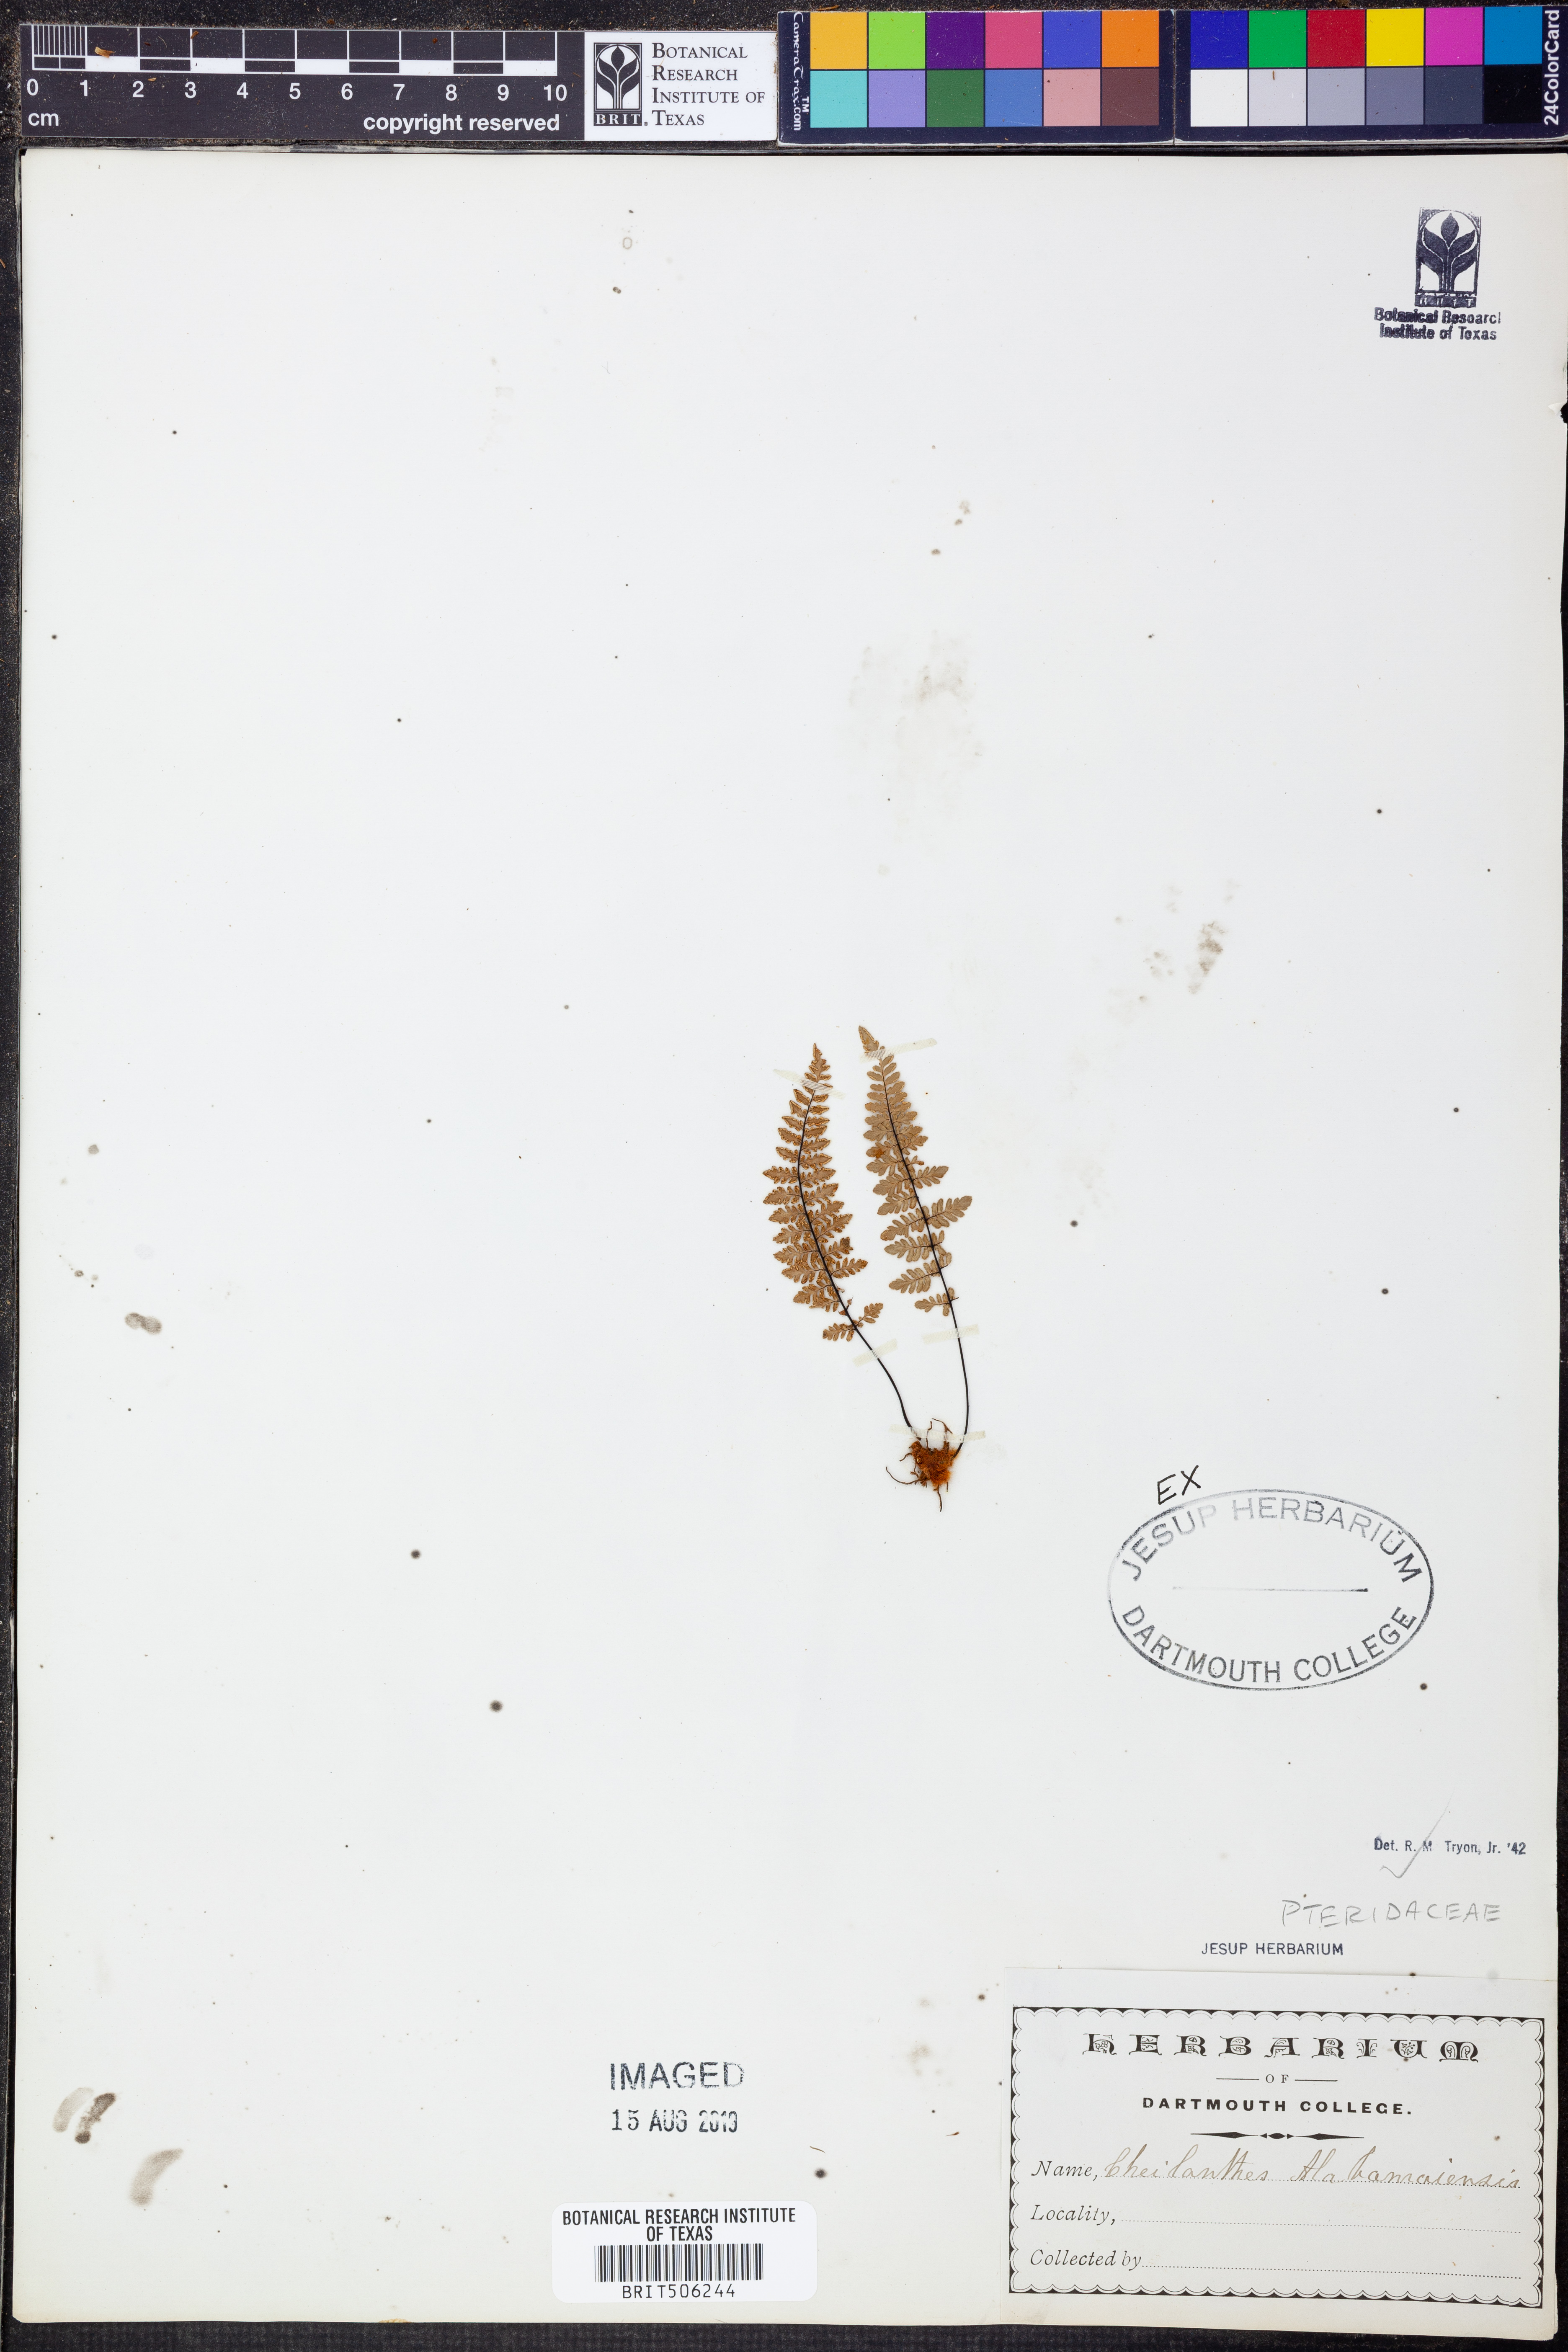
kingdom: Plantae
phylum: Tracheophyta
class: Polypodiopsida
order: Polypodiales
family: Pteridaceae
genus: Myriopteris
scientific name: Myriopteris alabamensis
